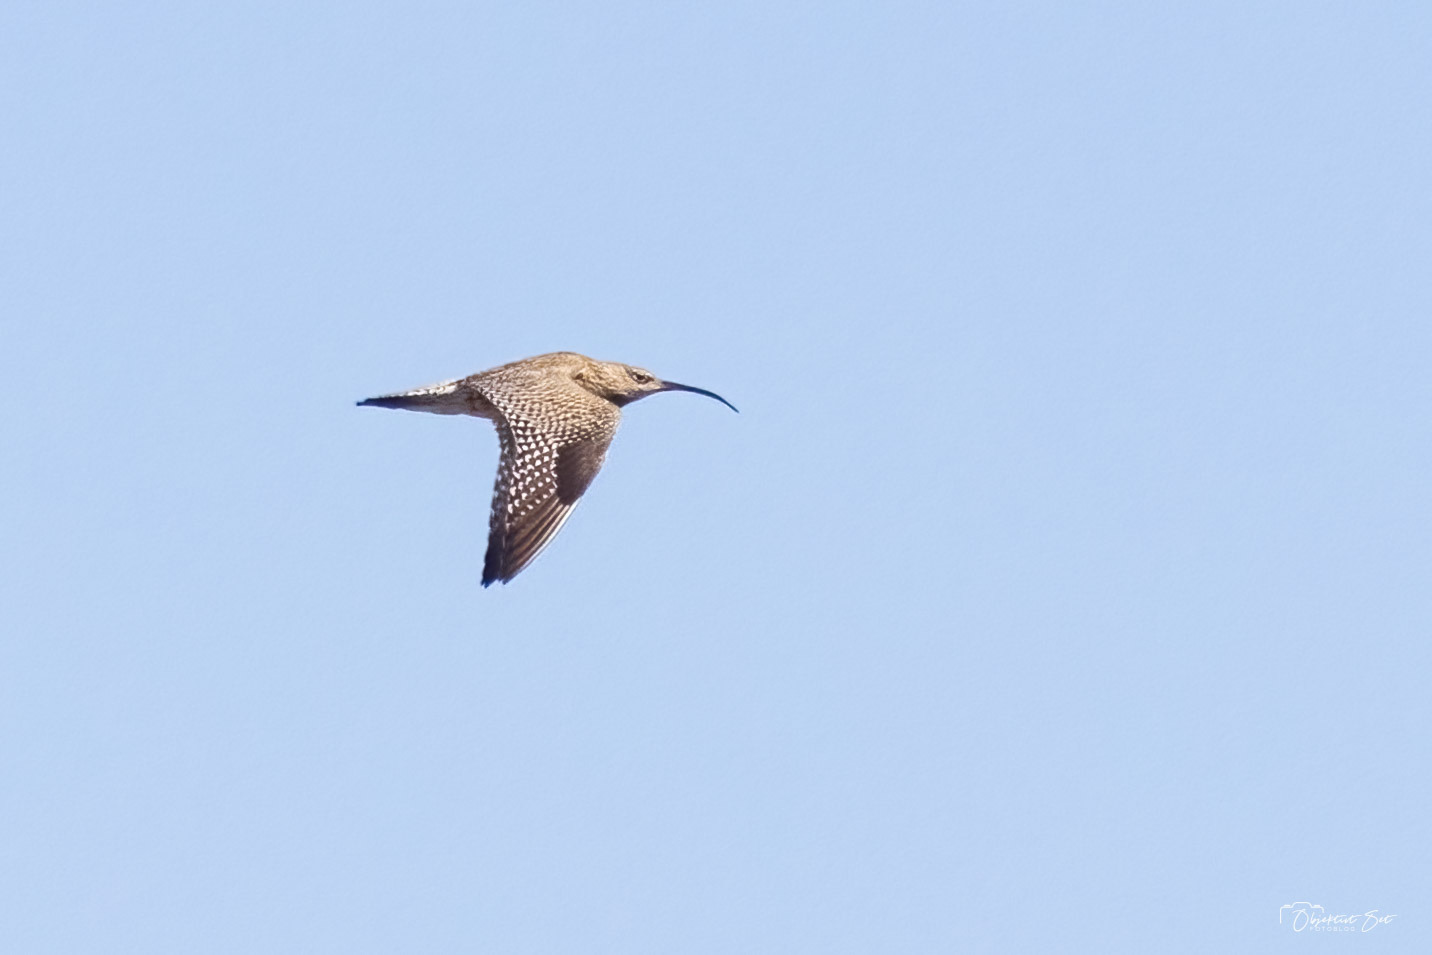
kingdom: Animalia
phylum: Chordata
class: Aves
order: Charadriiformes
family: Scolopacidae
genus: Numenius
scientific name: Numenius arquata
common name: Storspove
